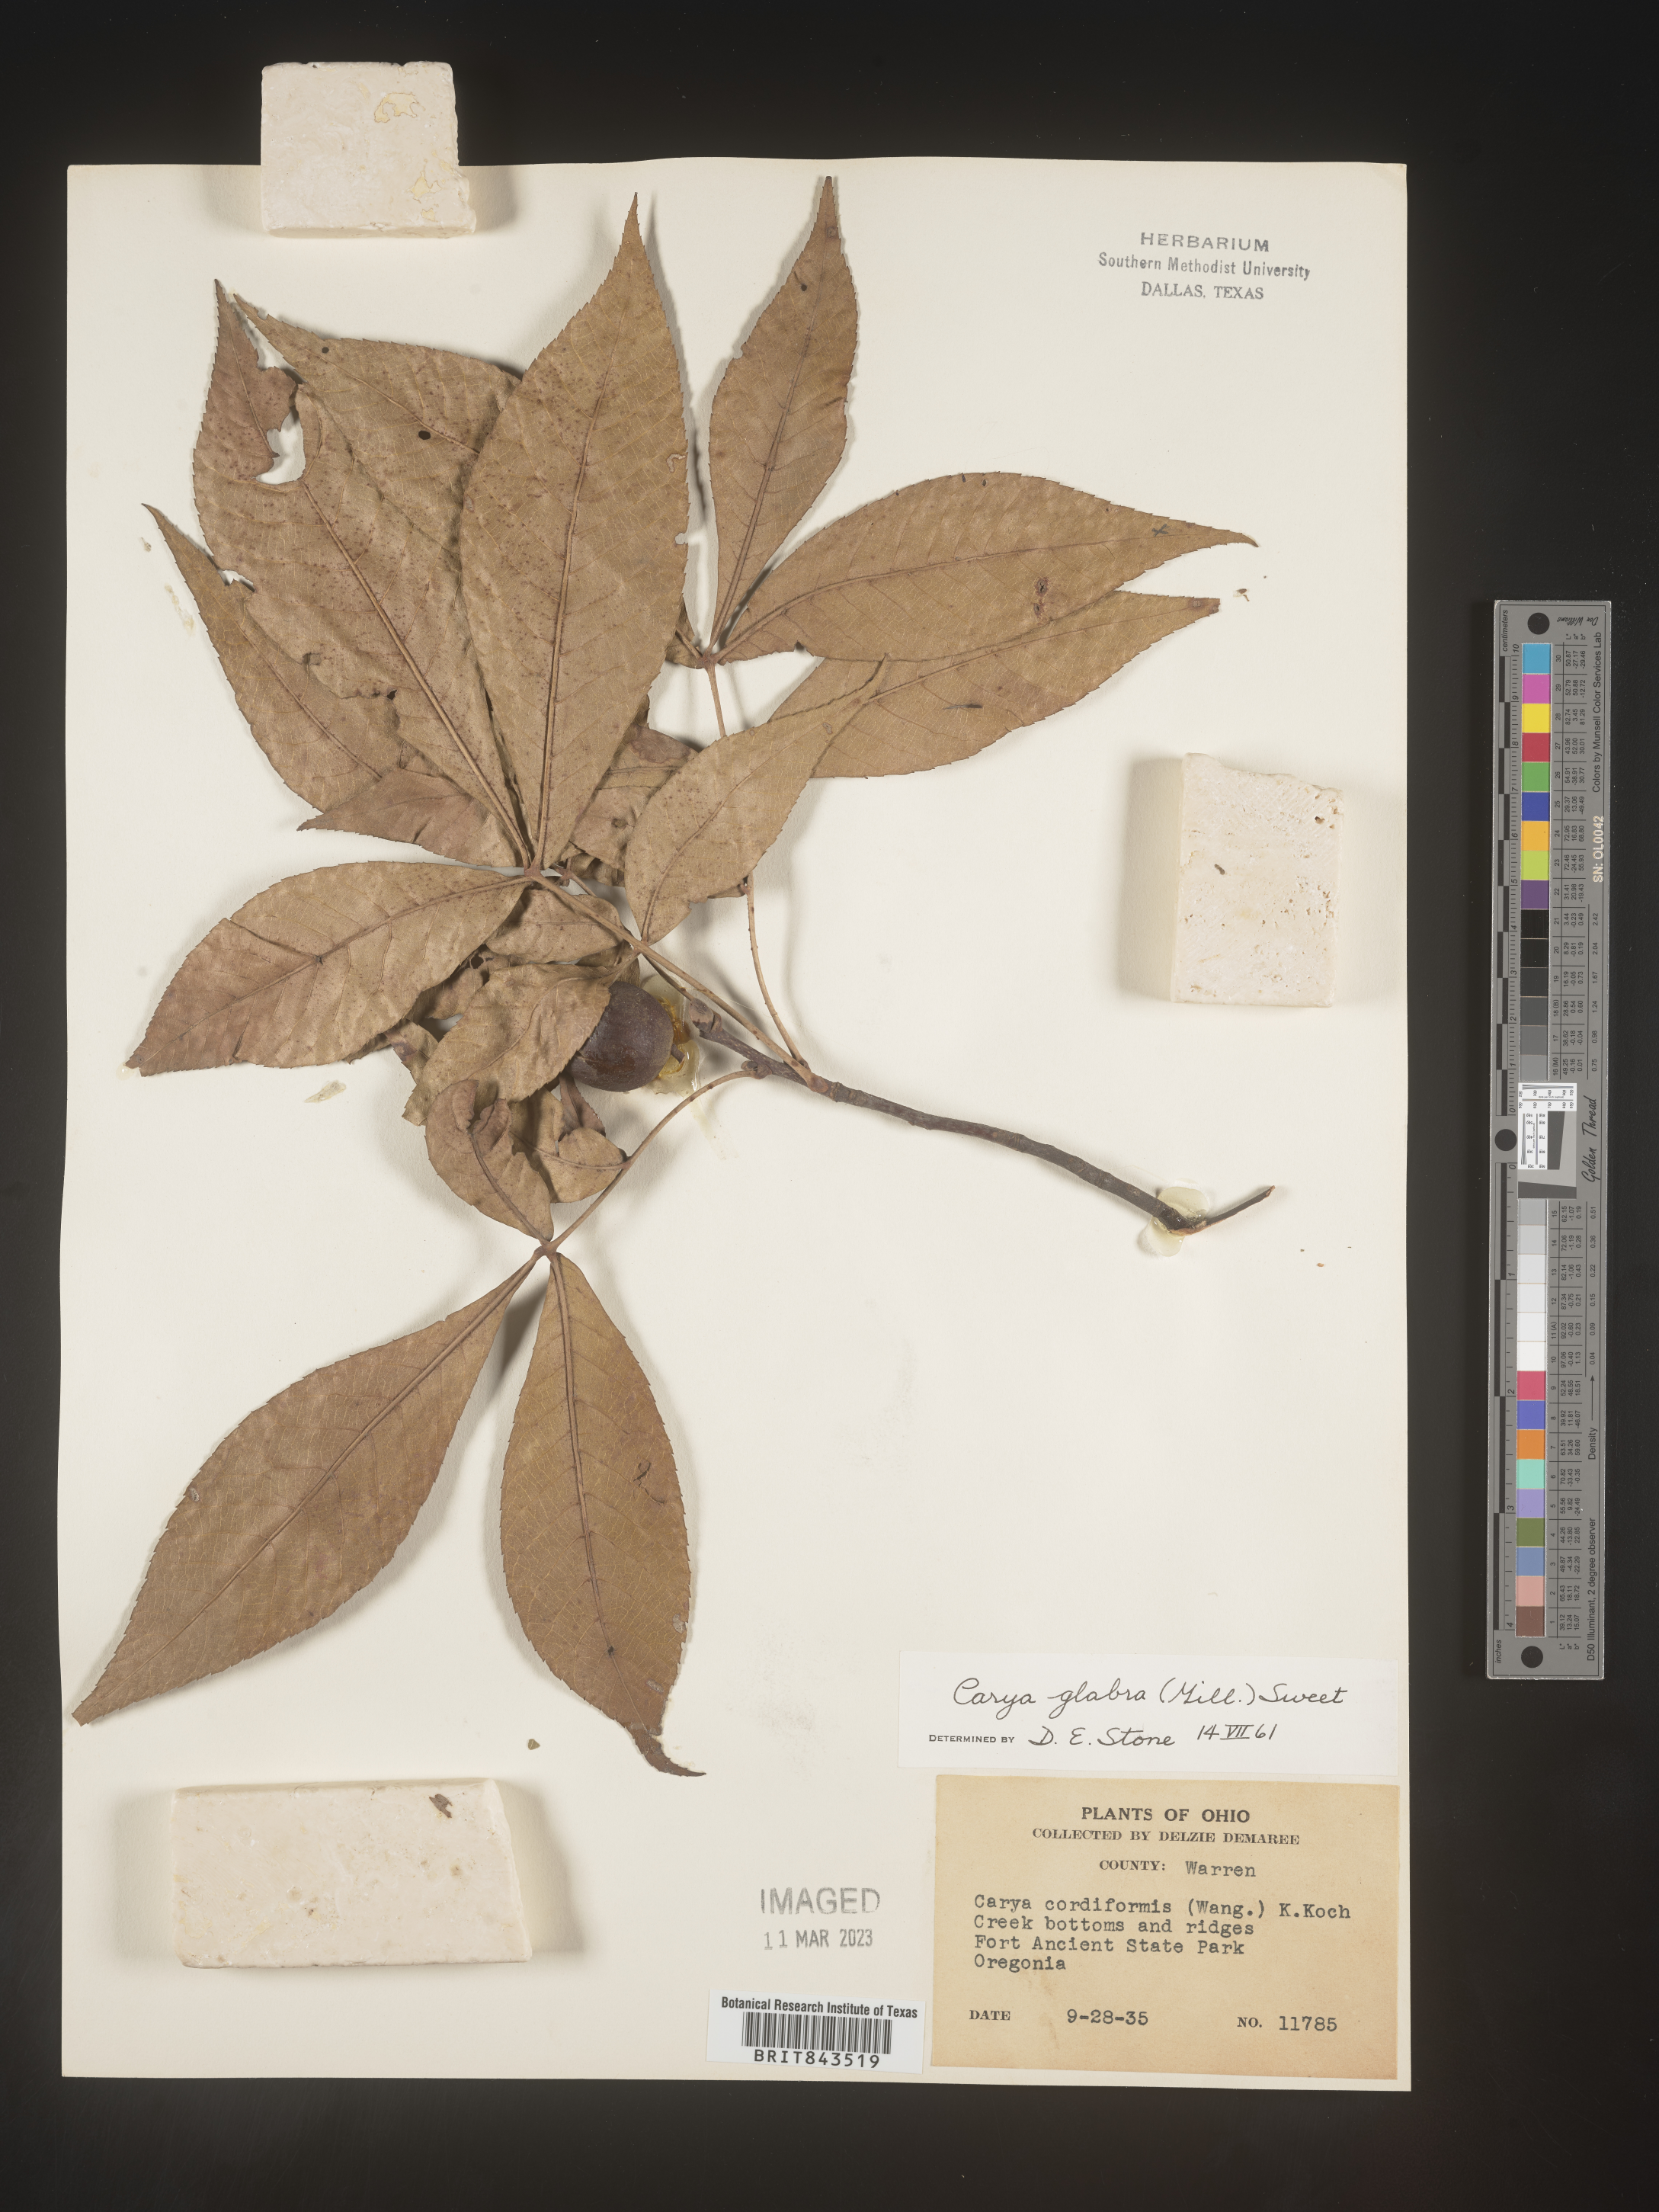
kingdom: Plantae
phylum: Tracheophyta
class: Magnoliopsida
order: Fagales
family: Juglandaceae
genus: Carya
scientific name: Carya glabra
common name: Pignut hickory
